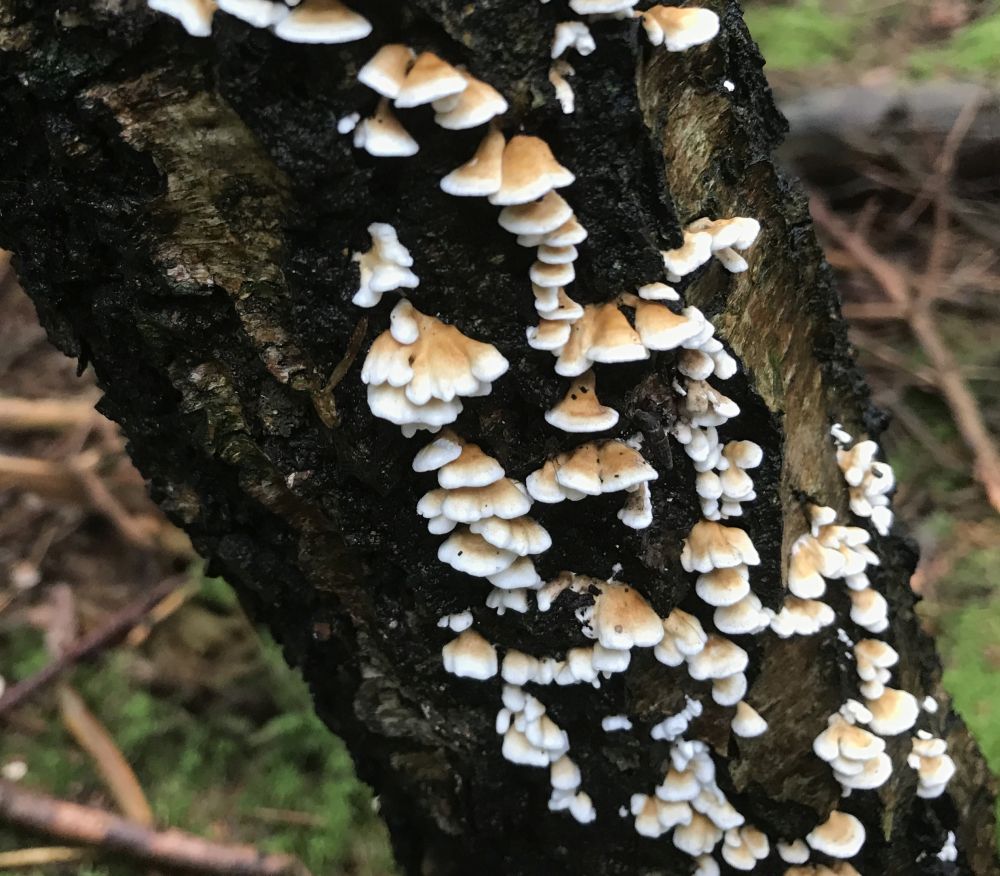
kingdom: Fungi
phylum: Basidiomycota
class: Agaricomycetes
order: Amylocorticiales
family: Amylocorticiaceae
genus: Plicaturopsis
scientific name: Plicaturopsis crispa
